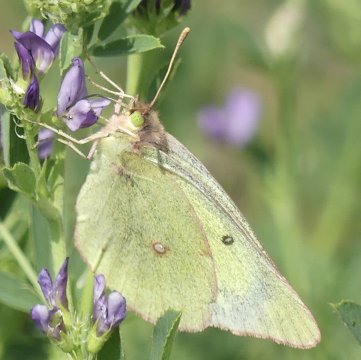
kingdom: Animalia
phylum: Arthropoda
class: Insecta
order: Lepidoptera
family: Pieridae
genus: Colias
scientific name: Colias philodice
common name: Clouded Sulphur
